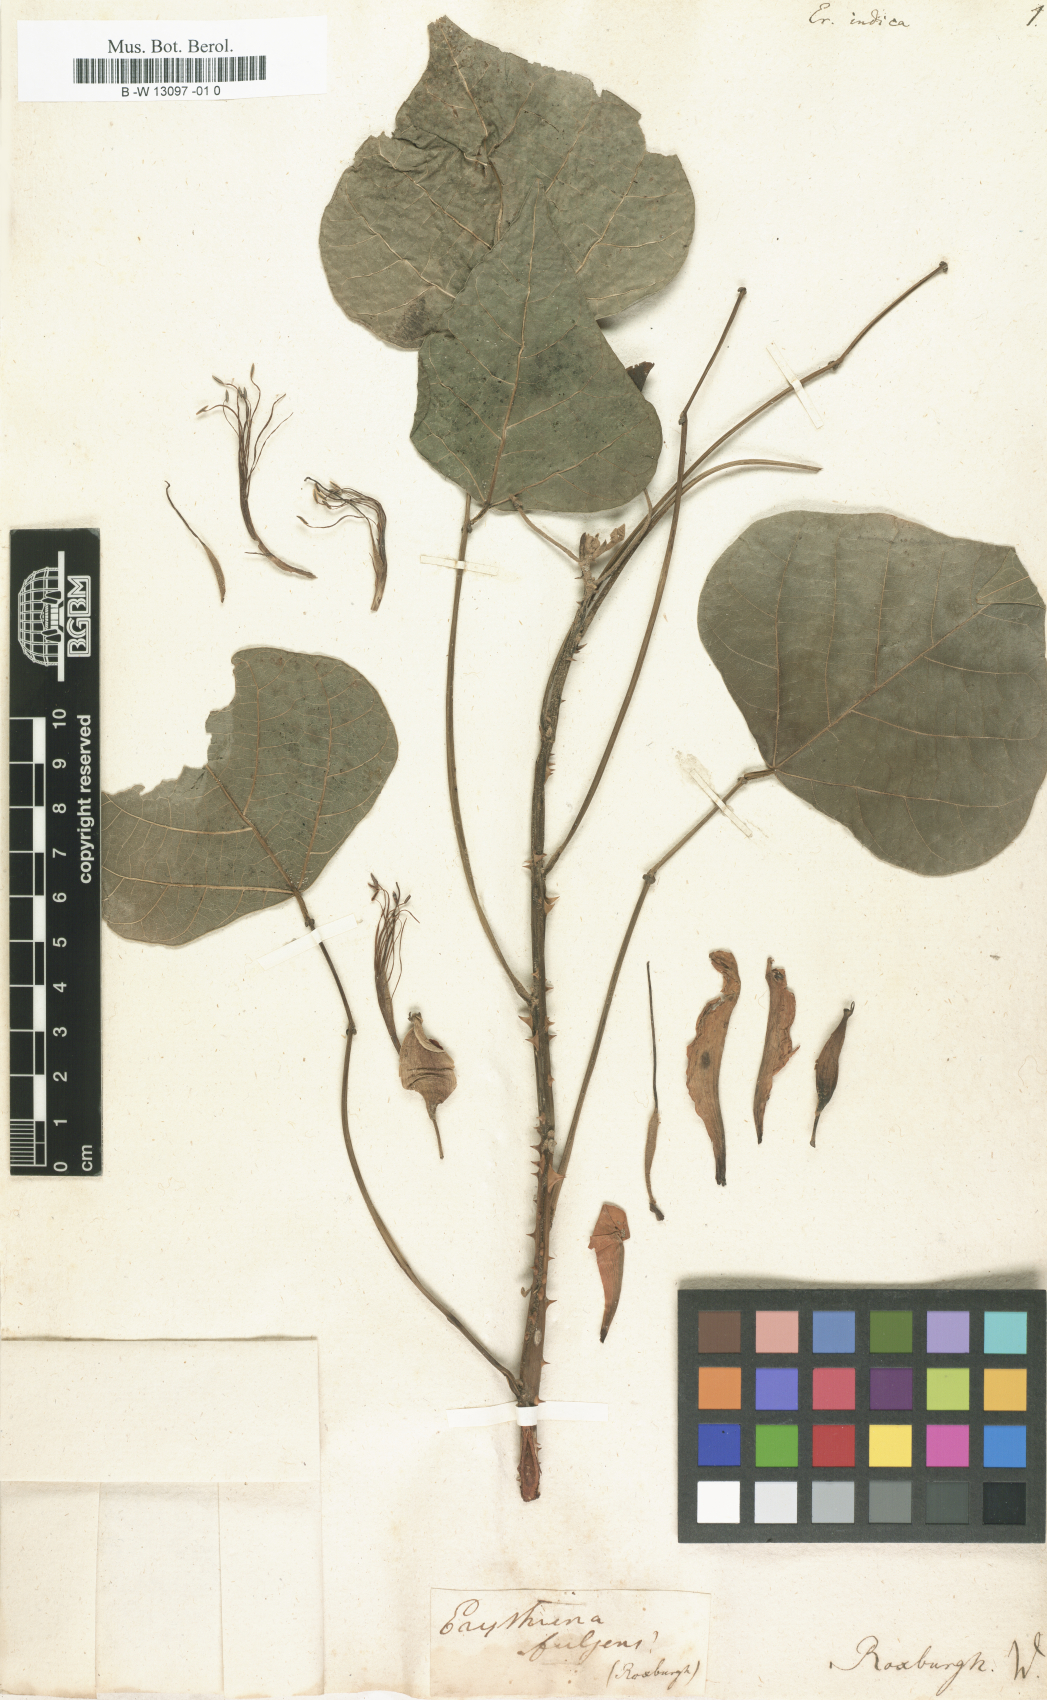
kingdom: Plantae
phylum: Tracheophyta
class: Magnoliopsida
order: Fabales
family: Fabaceae
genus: Erythrina
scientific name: Erythrina indica
